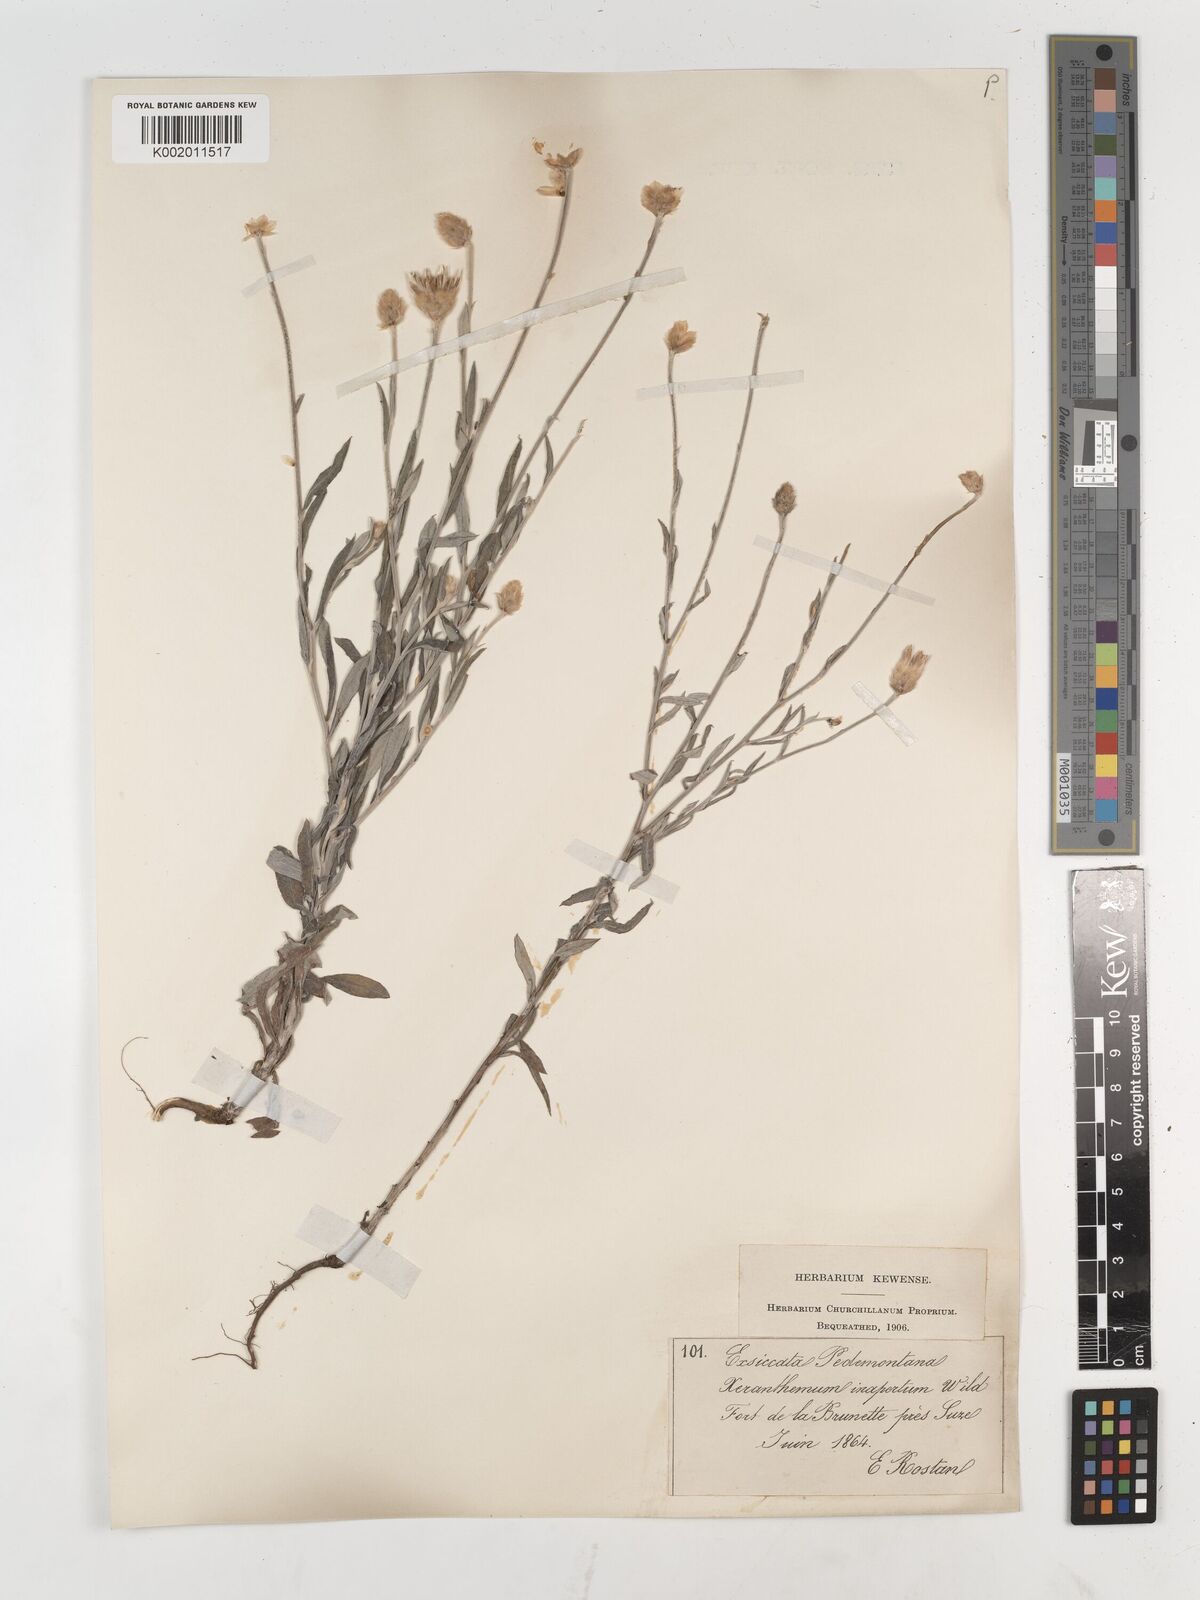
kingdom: Plantae
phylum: Tracheophyta
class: Magnoliopsida
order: Asterales
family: Asteraceae
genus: Xeranthemum
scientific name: Xeranthemum cylindraceum
